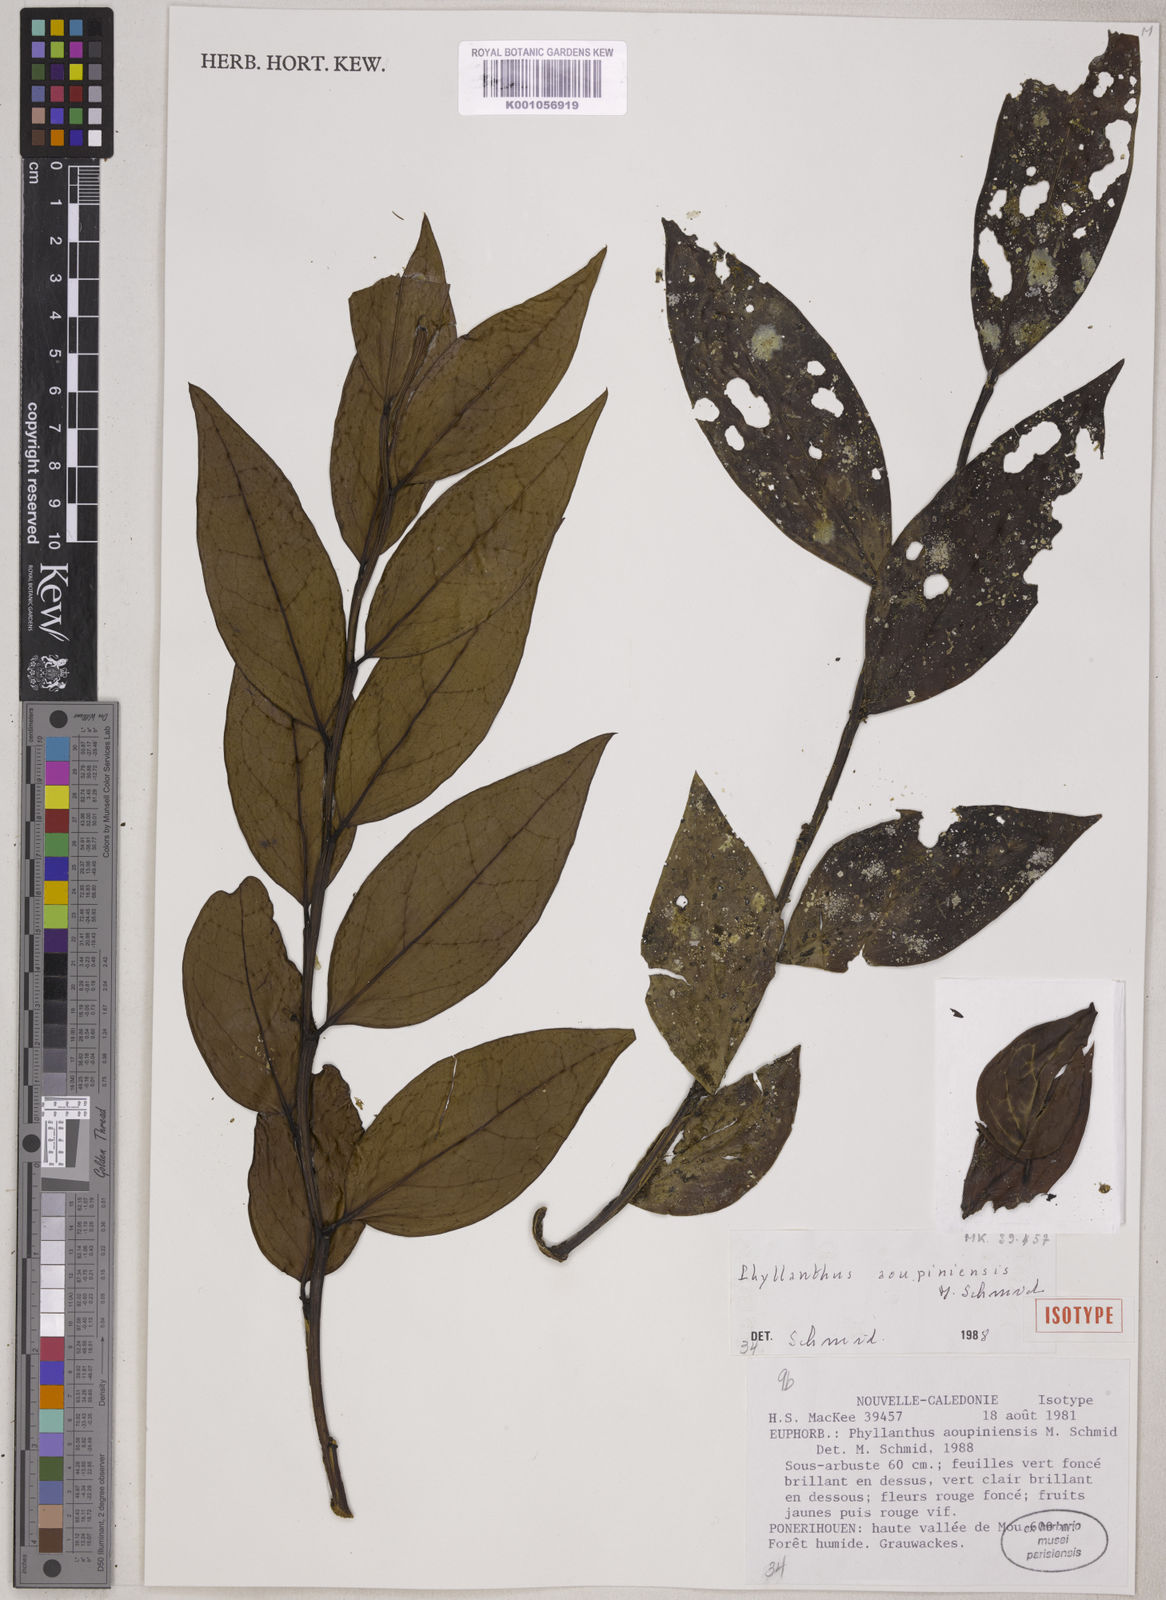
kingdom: Plantae
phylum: Tracheophyta
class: Magnoliopsida
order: Malpighiales
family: Phyllanthaceae
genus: Phyllanthus
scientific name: Phyllanthus aoupinieensis
